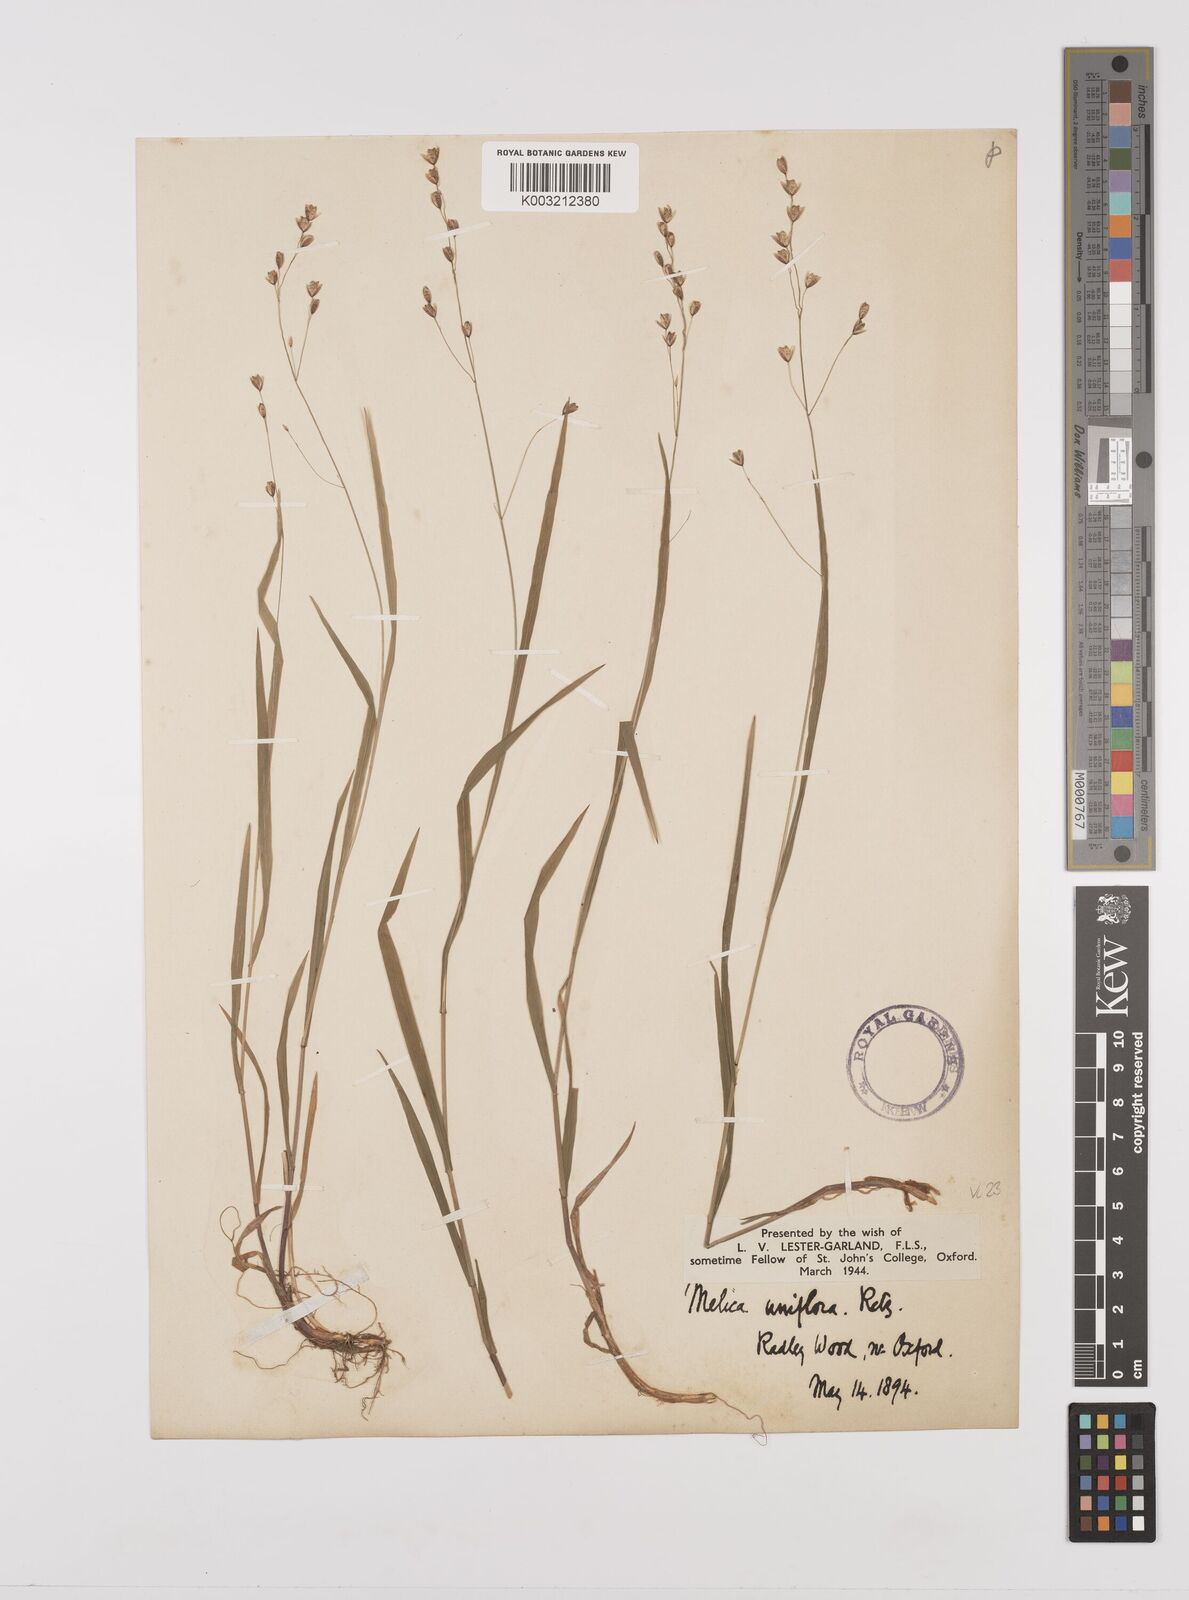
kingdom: Plantae
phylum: Tracheophyta
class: Liliopsida
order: Poales
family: Poaceae
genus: Melica
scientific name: Melica uniflora
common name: Wood melick
